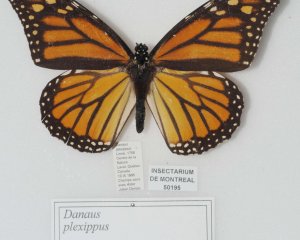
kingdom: Animalia
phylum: Arthropoda
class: Insecta
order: Lepidoptera
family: Nymphalidae
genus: Danaus
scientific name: Danaus plexippus
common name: Monarch
